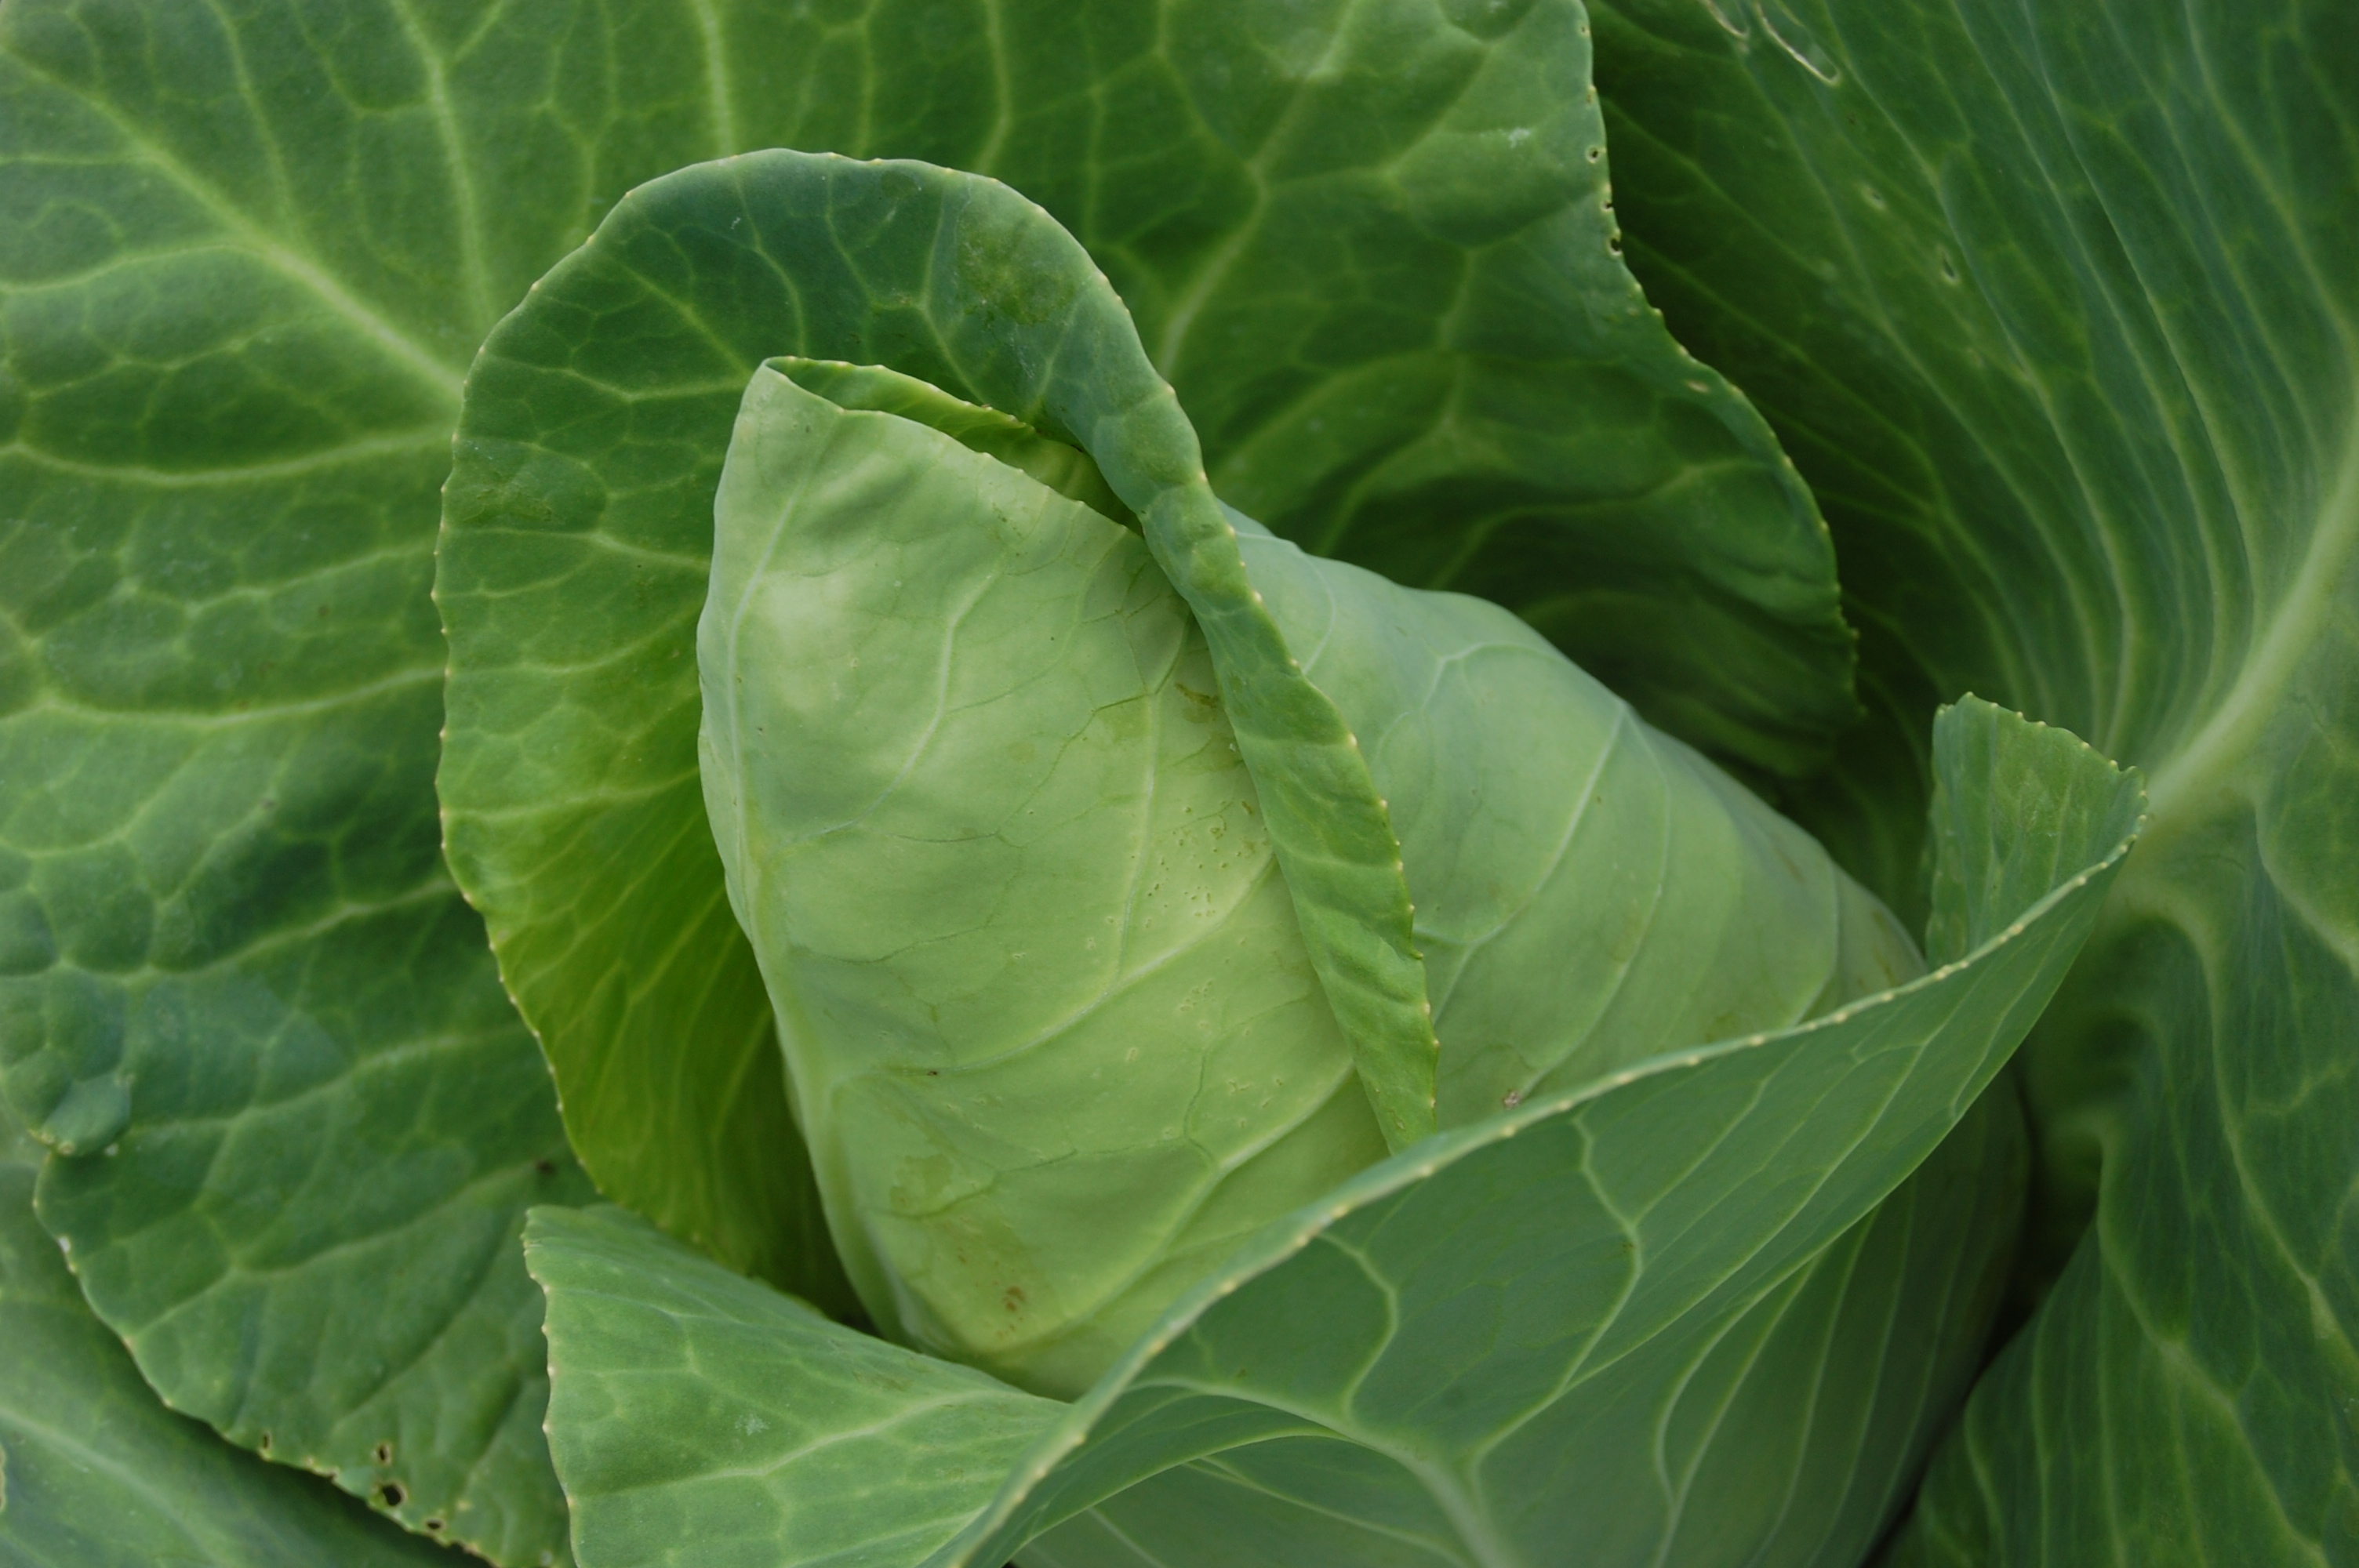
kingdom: Plantae
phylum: Tracheophyta
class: Magnoliopsida
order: Brassicales
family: Brassicaceae
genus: Brassica
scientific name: Brassica oleracea
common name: Cabbage
